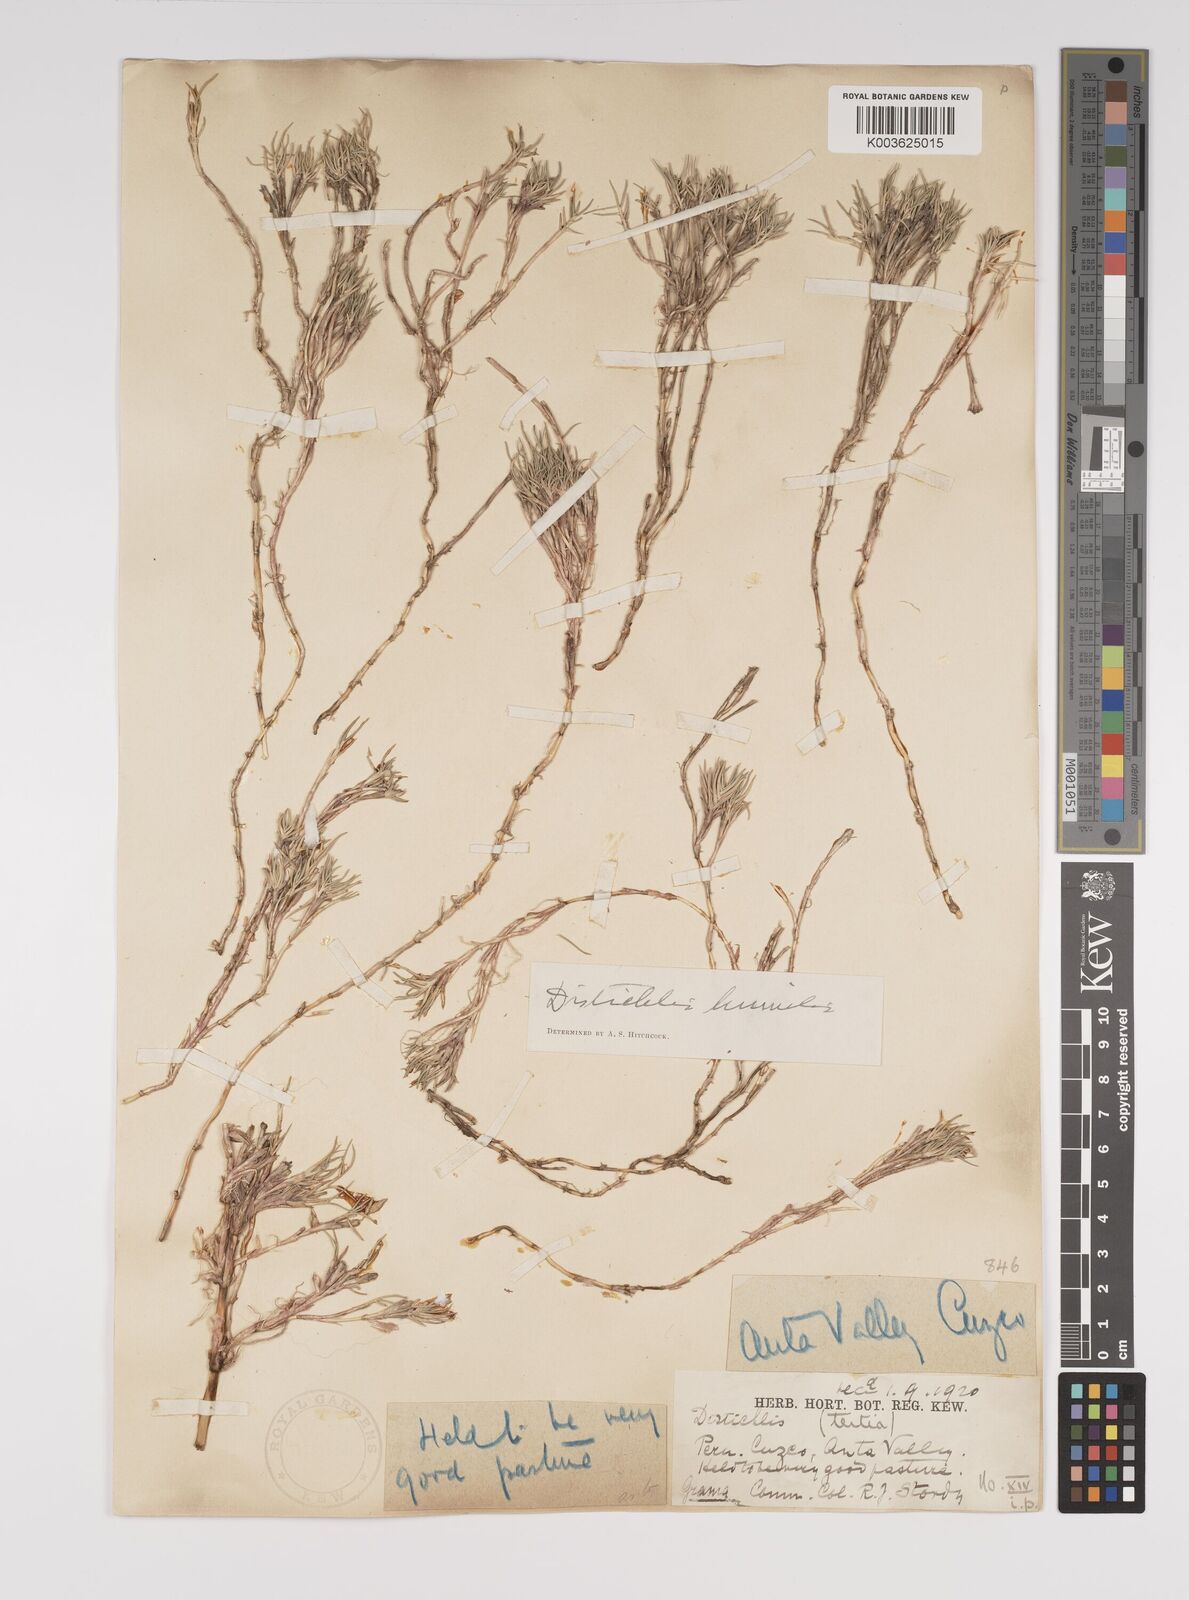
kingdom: Plantae
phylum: Tracheophyta
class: Liliopsida
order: Poales
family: Poaceae
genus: Distichlis
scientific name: Distichlis humilis
